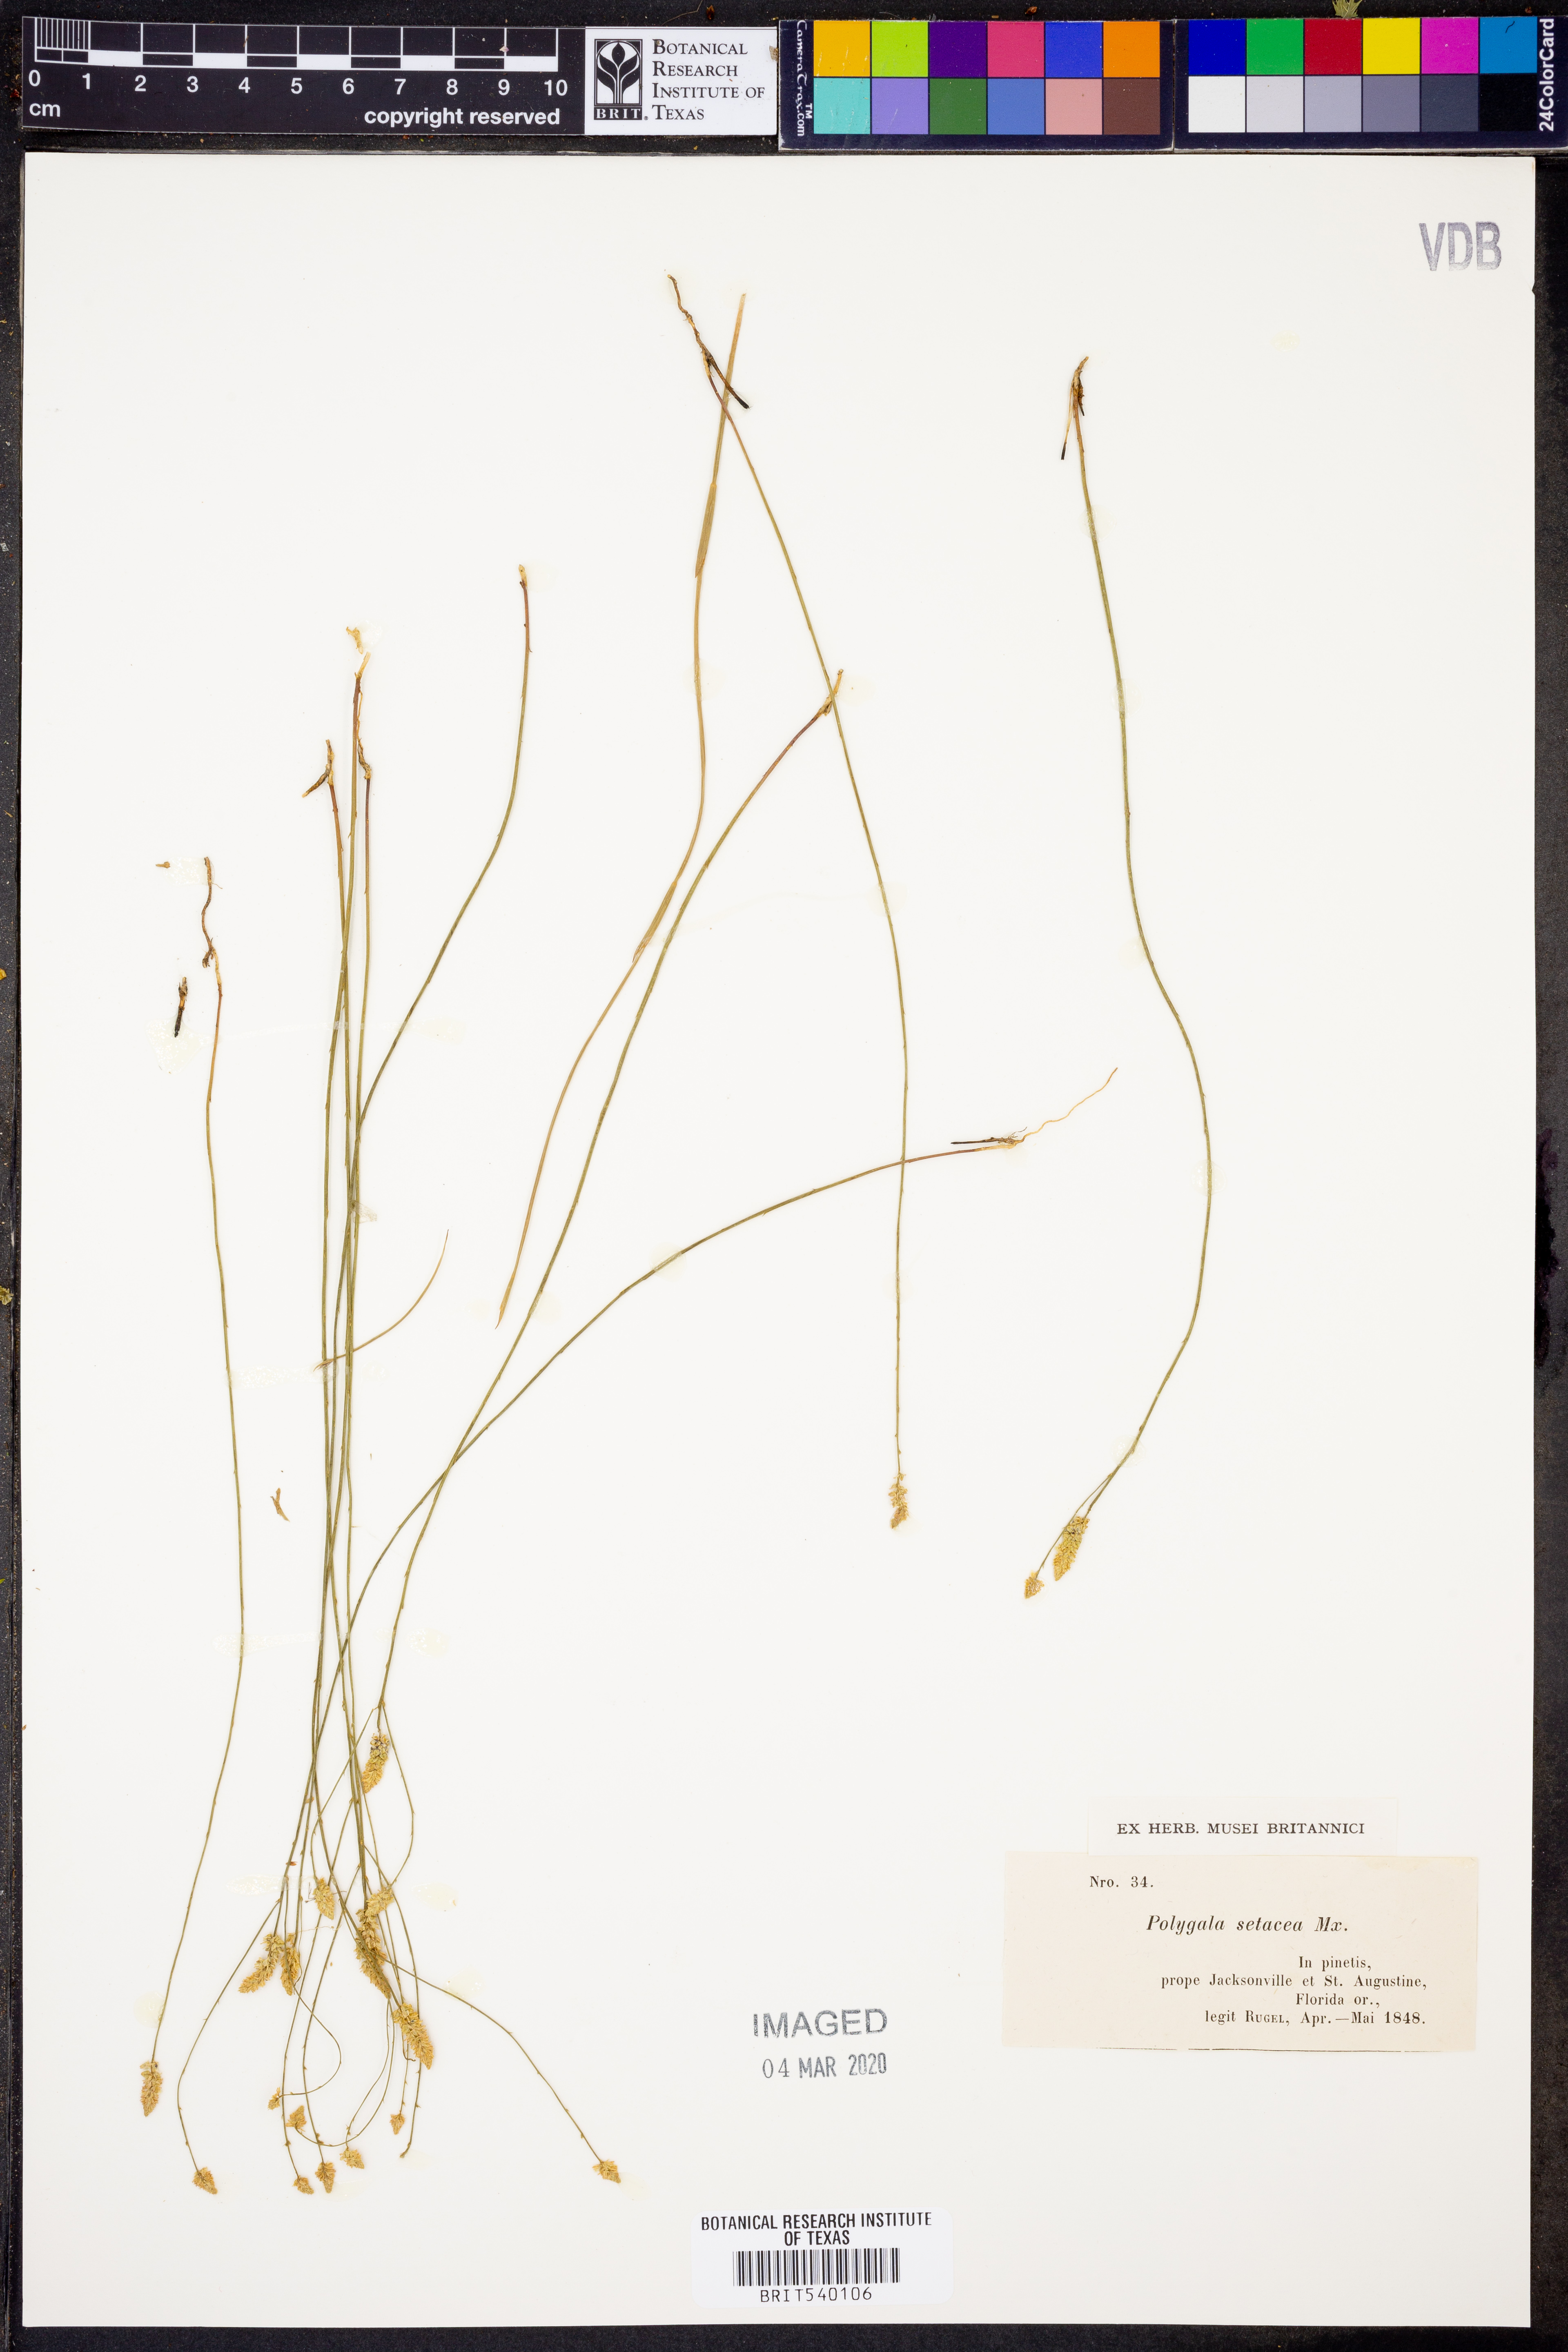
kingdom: Plantae
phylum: Tracheophyta
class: Magnoliopsida
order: Fabales
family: Polygalaceae
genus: Polygala
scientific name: Polygala setacea
